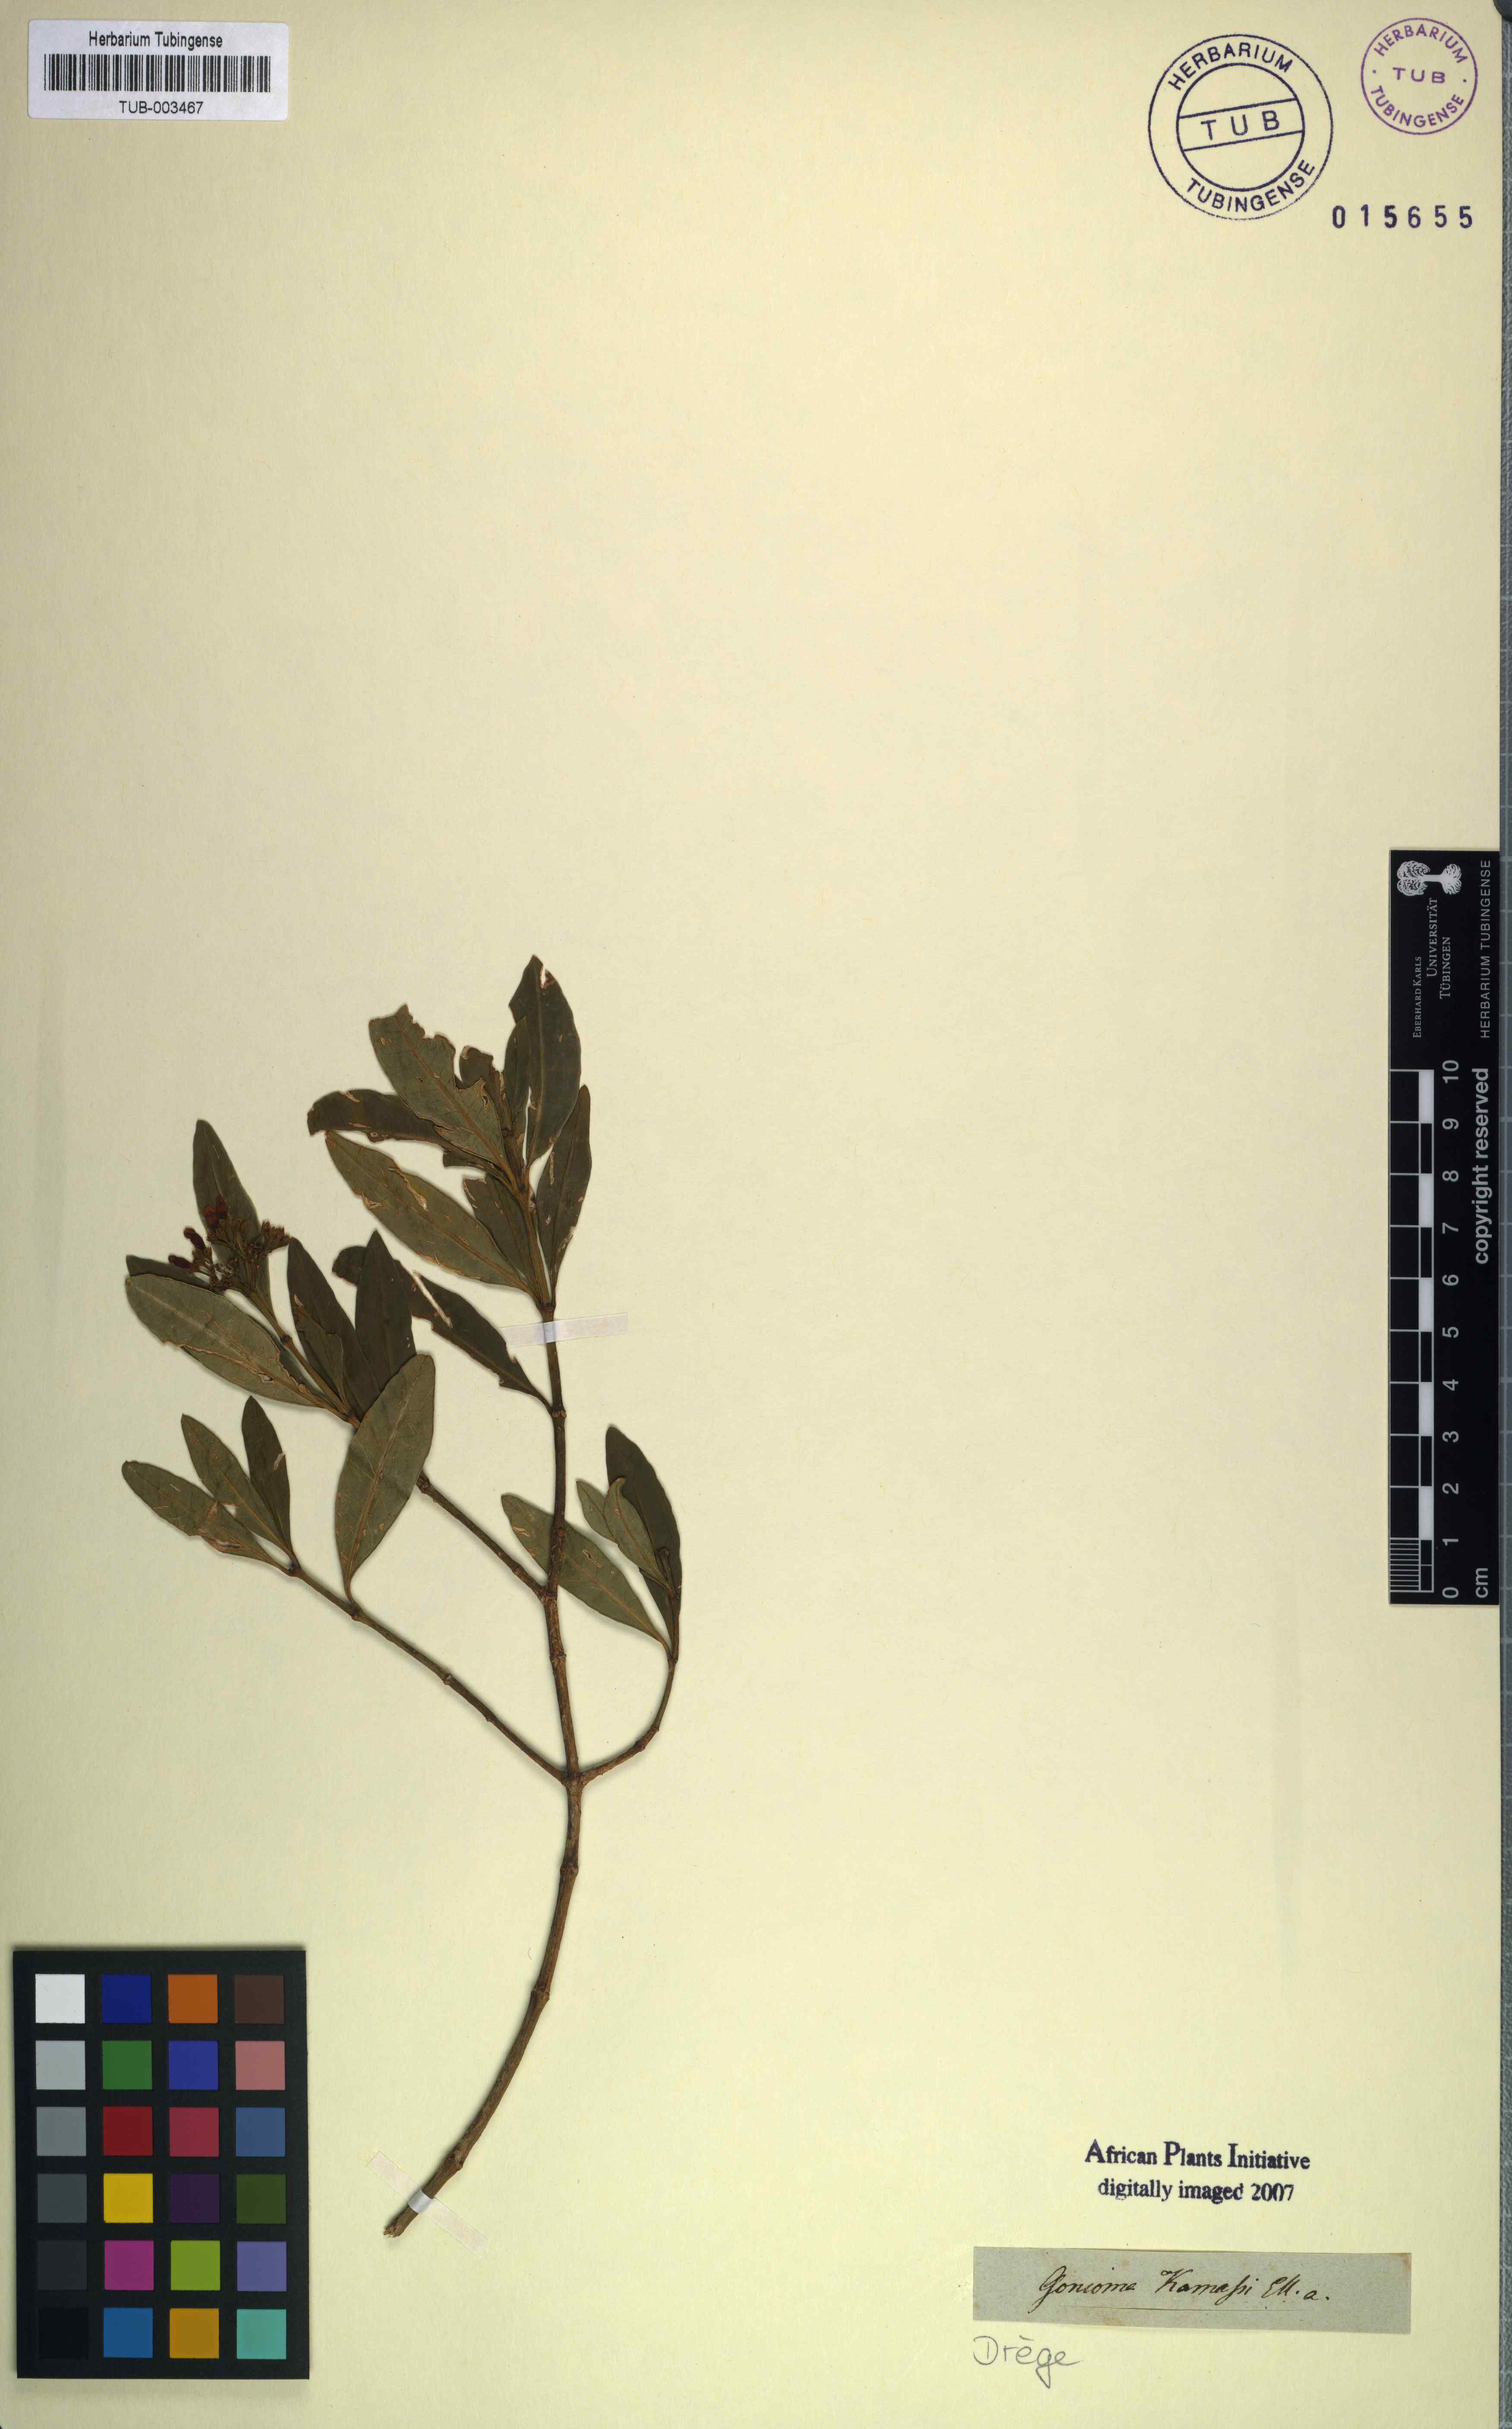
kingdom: Plantae
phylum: Tracheophyta
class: Magnoliopsida
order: Gentianales
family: Apocynaceae
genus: Gonioma
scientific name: Gonioma kamassi
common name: Kamassi
